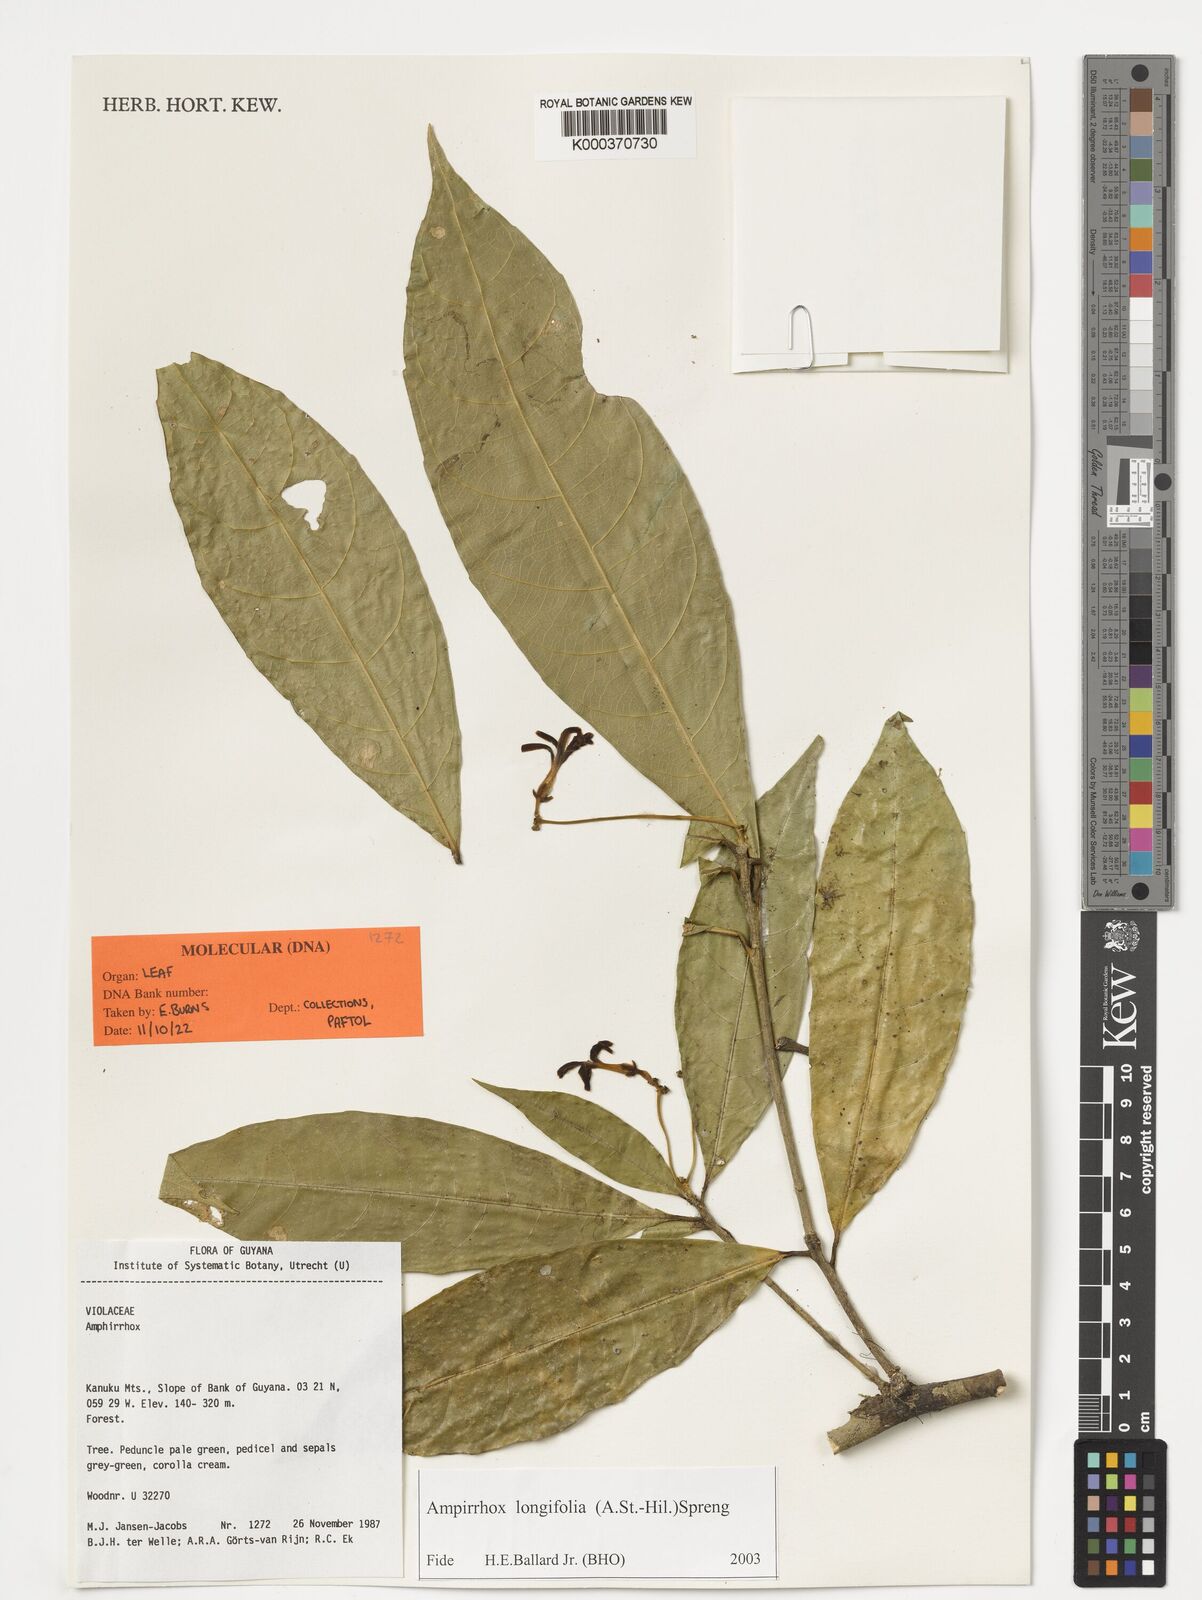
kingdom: Plantae
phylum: Tracheophyta
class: Magnoliopsida
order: Malpighiales
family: Violaceae
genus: Amphirrhox
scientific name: Amphirrhox longifolia
